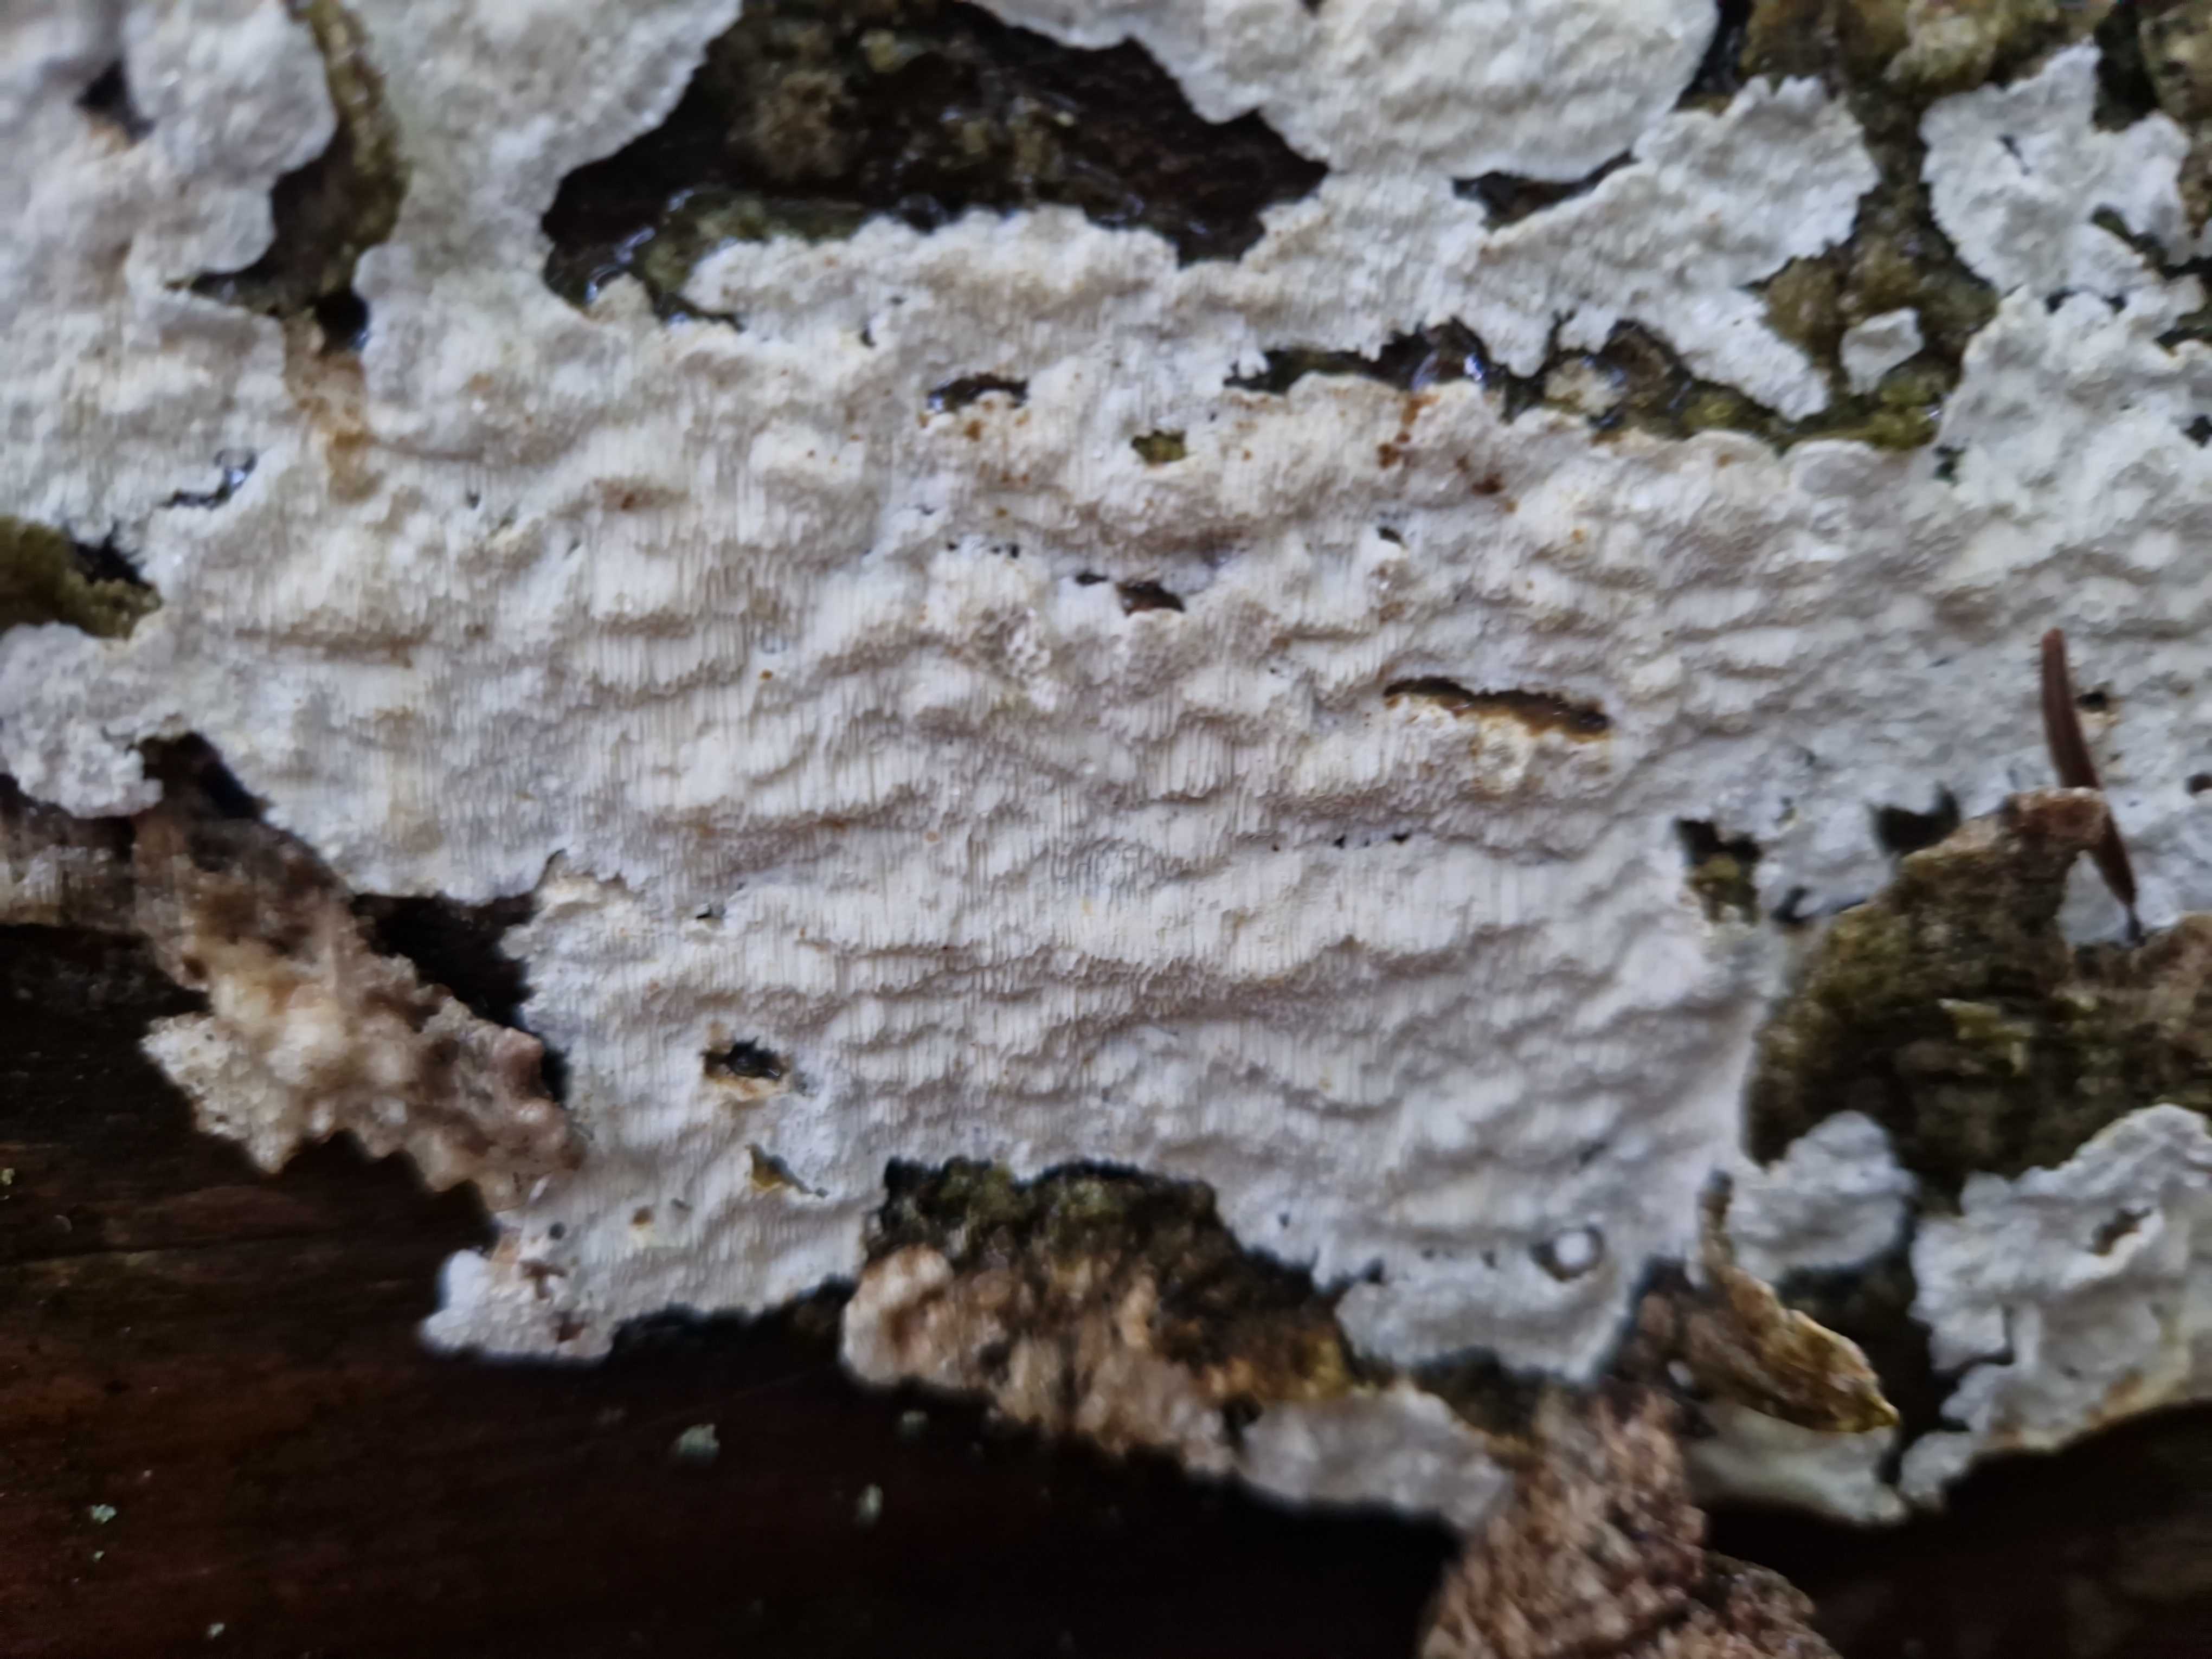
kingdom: Fungi
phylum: Basidiomycota
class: Agaricomycetes
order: Polyporales
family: Gelatoporiaceae
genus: Cinereomyces
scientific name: Cinereomyces lindbladii
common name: almindelig gråporesvamp
